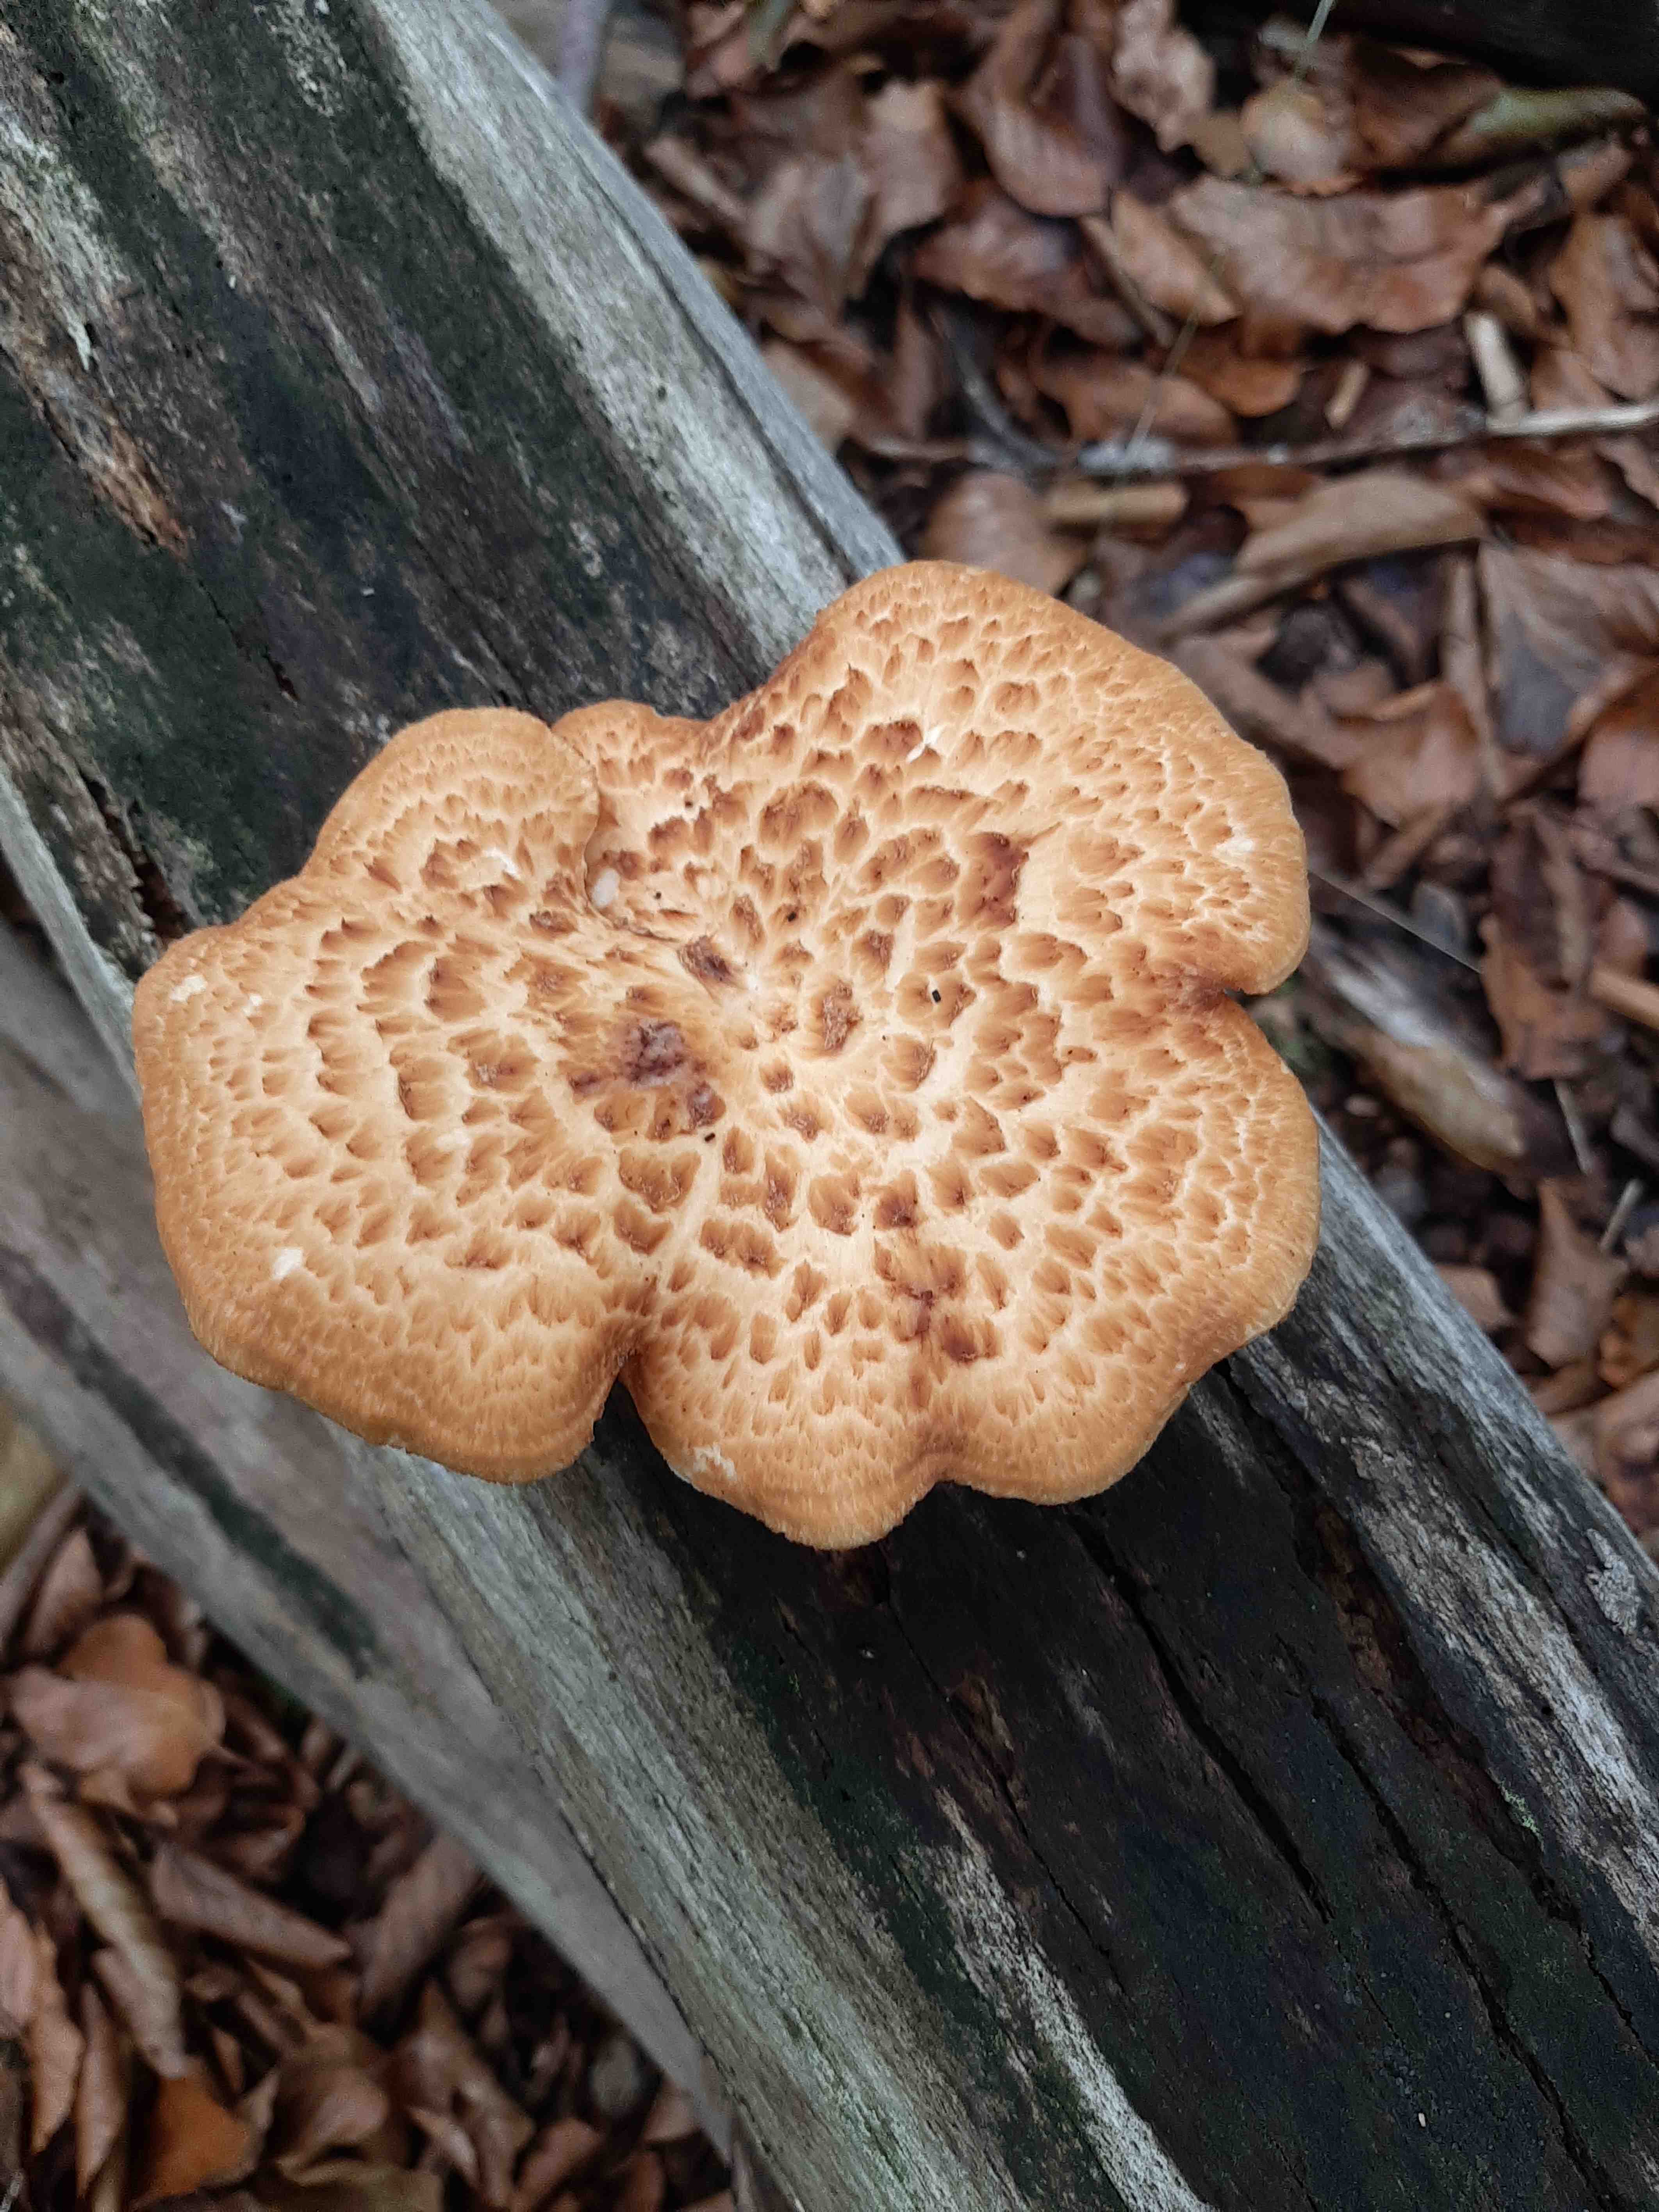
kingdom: Fungi
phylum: Basidiomycota
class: Agaricomycetes
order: Polyporales
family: Polyporaceae
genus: Cerioporus
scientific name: Cerioporus squamosus
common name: skællet stilkporesvamp
